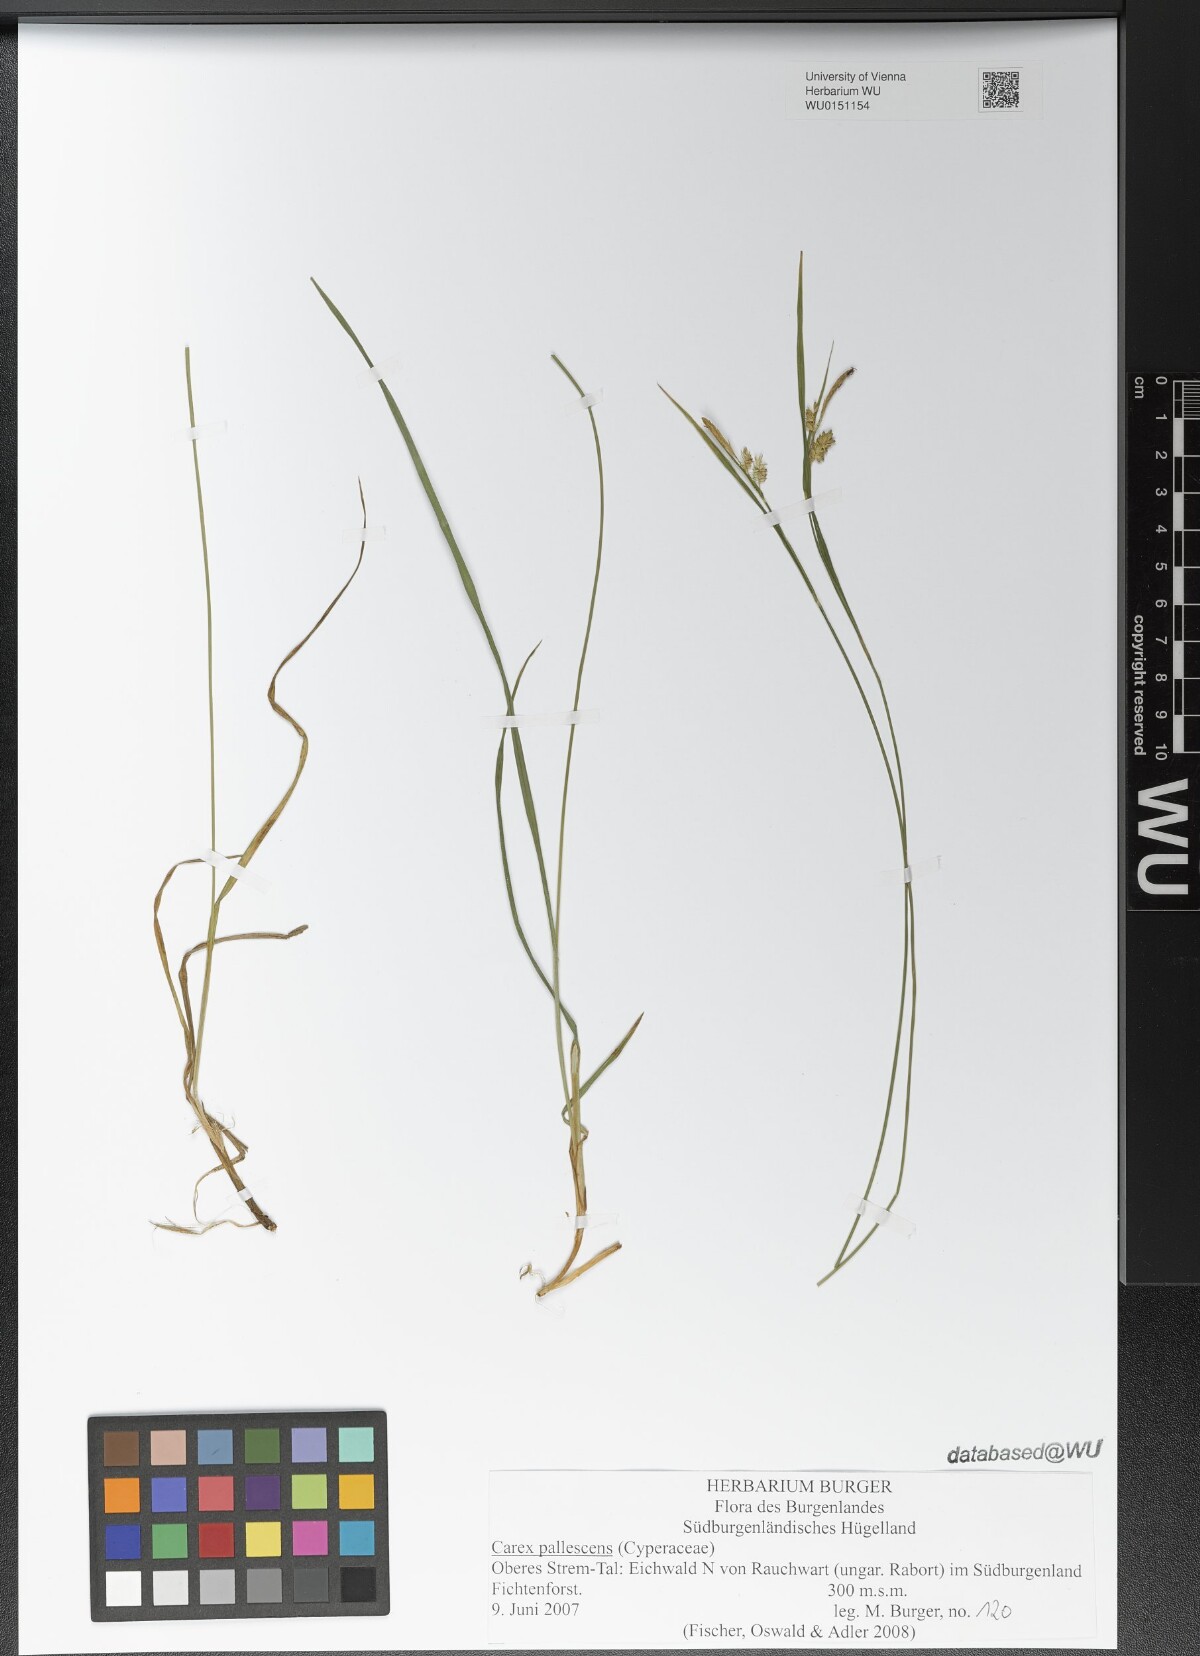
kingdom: Plantae
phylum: Tracheophyta
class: Liliopsida
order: Poales
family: Cyperaceae
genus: Carex
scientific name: Carex pallescens
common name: Pale sedge
